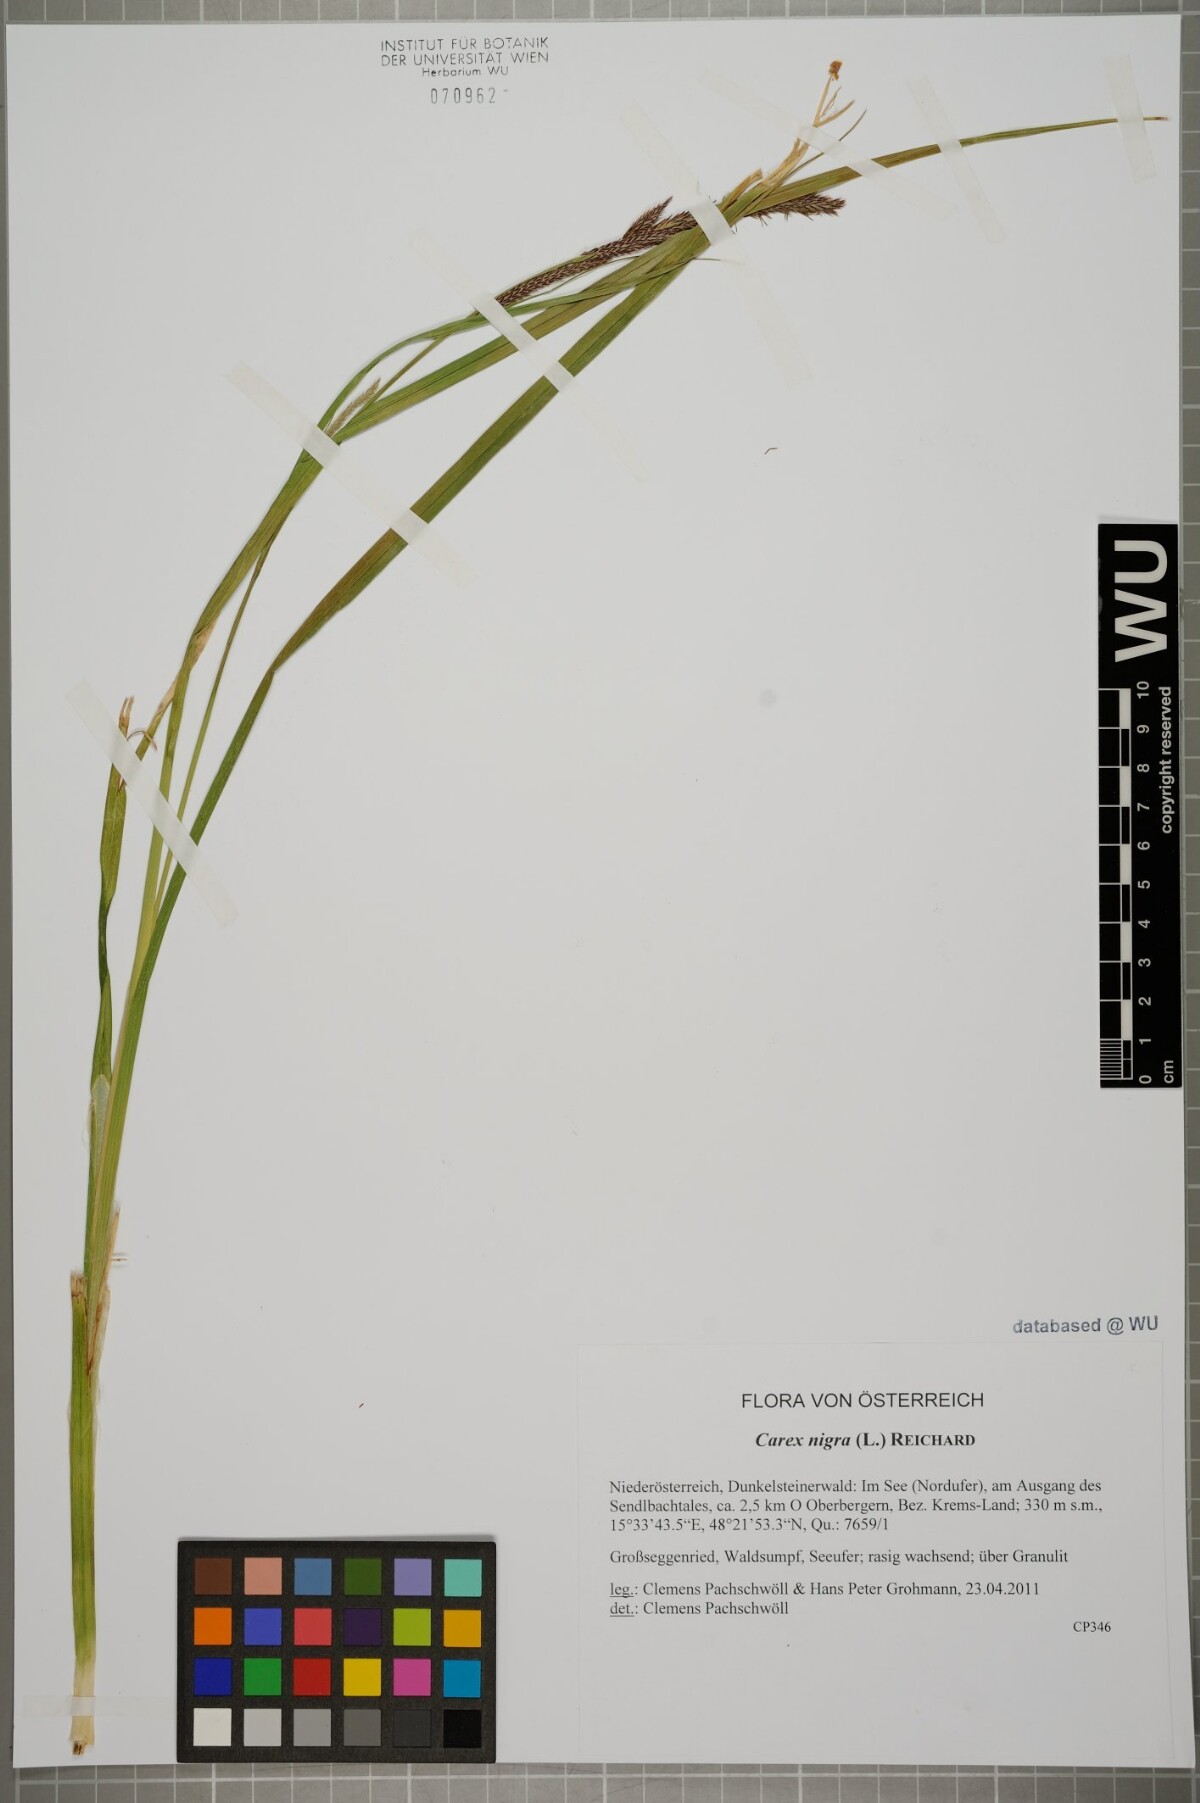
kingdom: Plantae
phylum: Tracheophyta
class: Liliopsida
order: Poales
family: Cyperaceae
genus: Carex
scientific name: Carex nigra
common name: Common sedge
